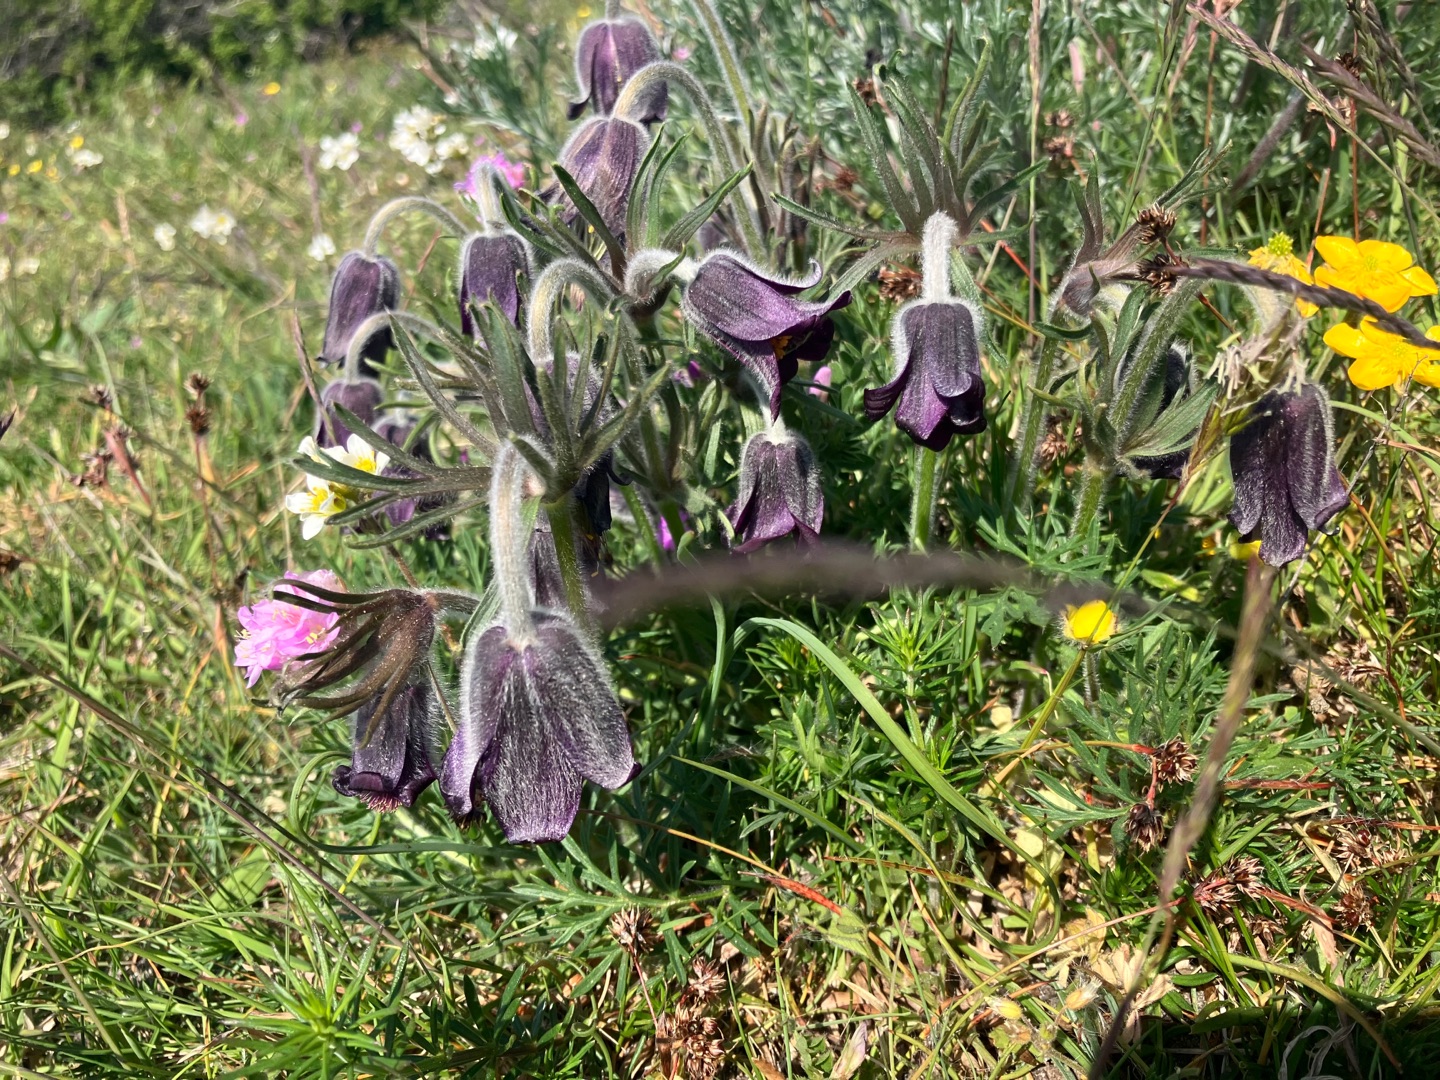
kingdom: Plantae
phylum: Tracheophyta
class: Magnoliopsida
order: Ranunculales
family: Ranunculaceae
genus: Pulsatilla
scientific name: Pulsatilla pratensis
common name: Nikkende kobjælde
